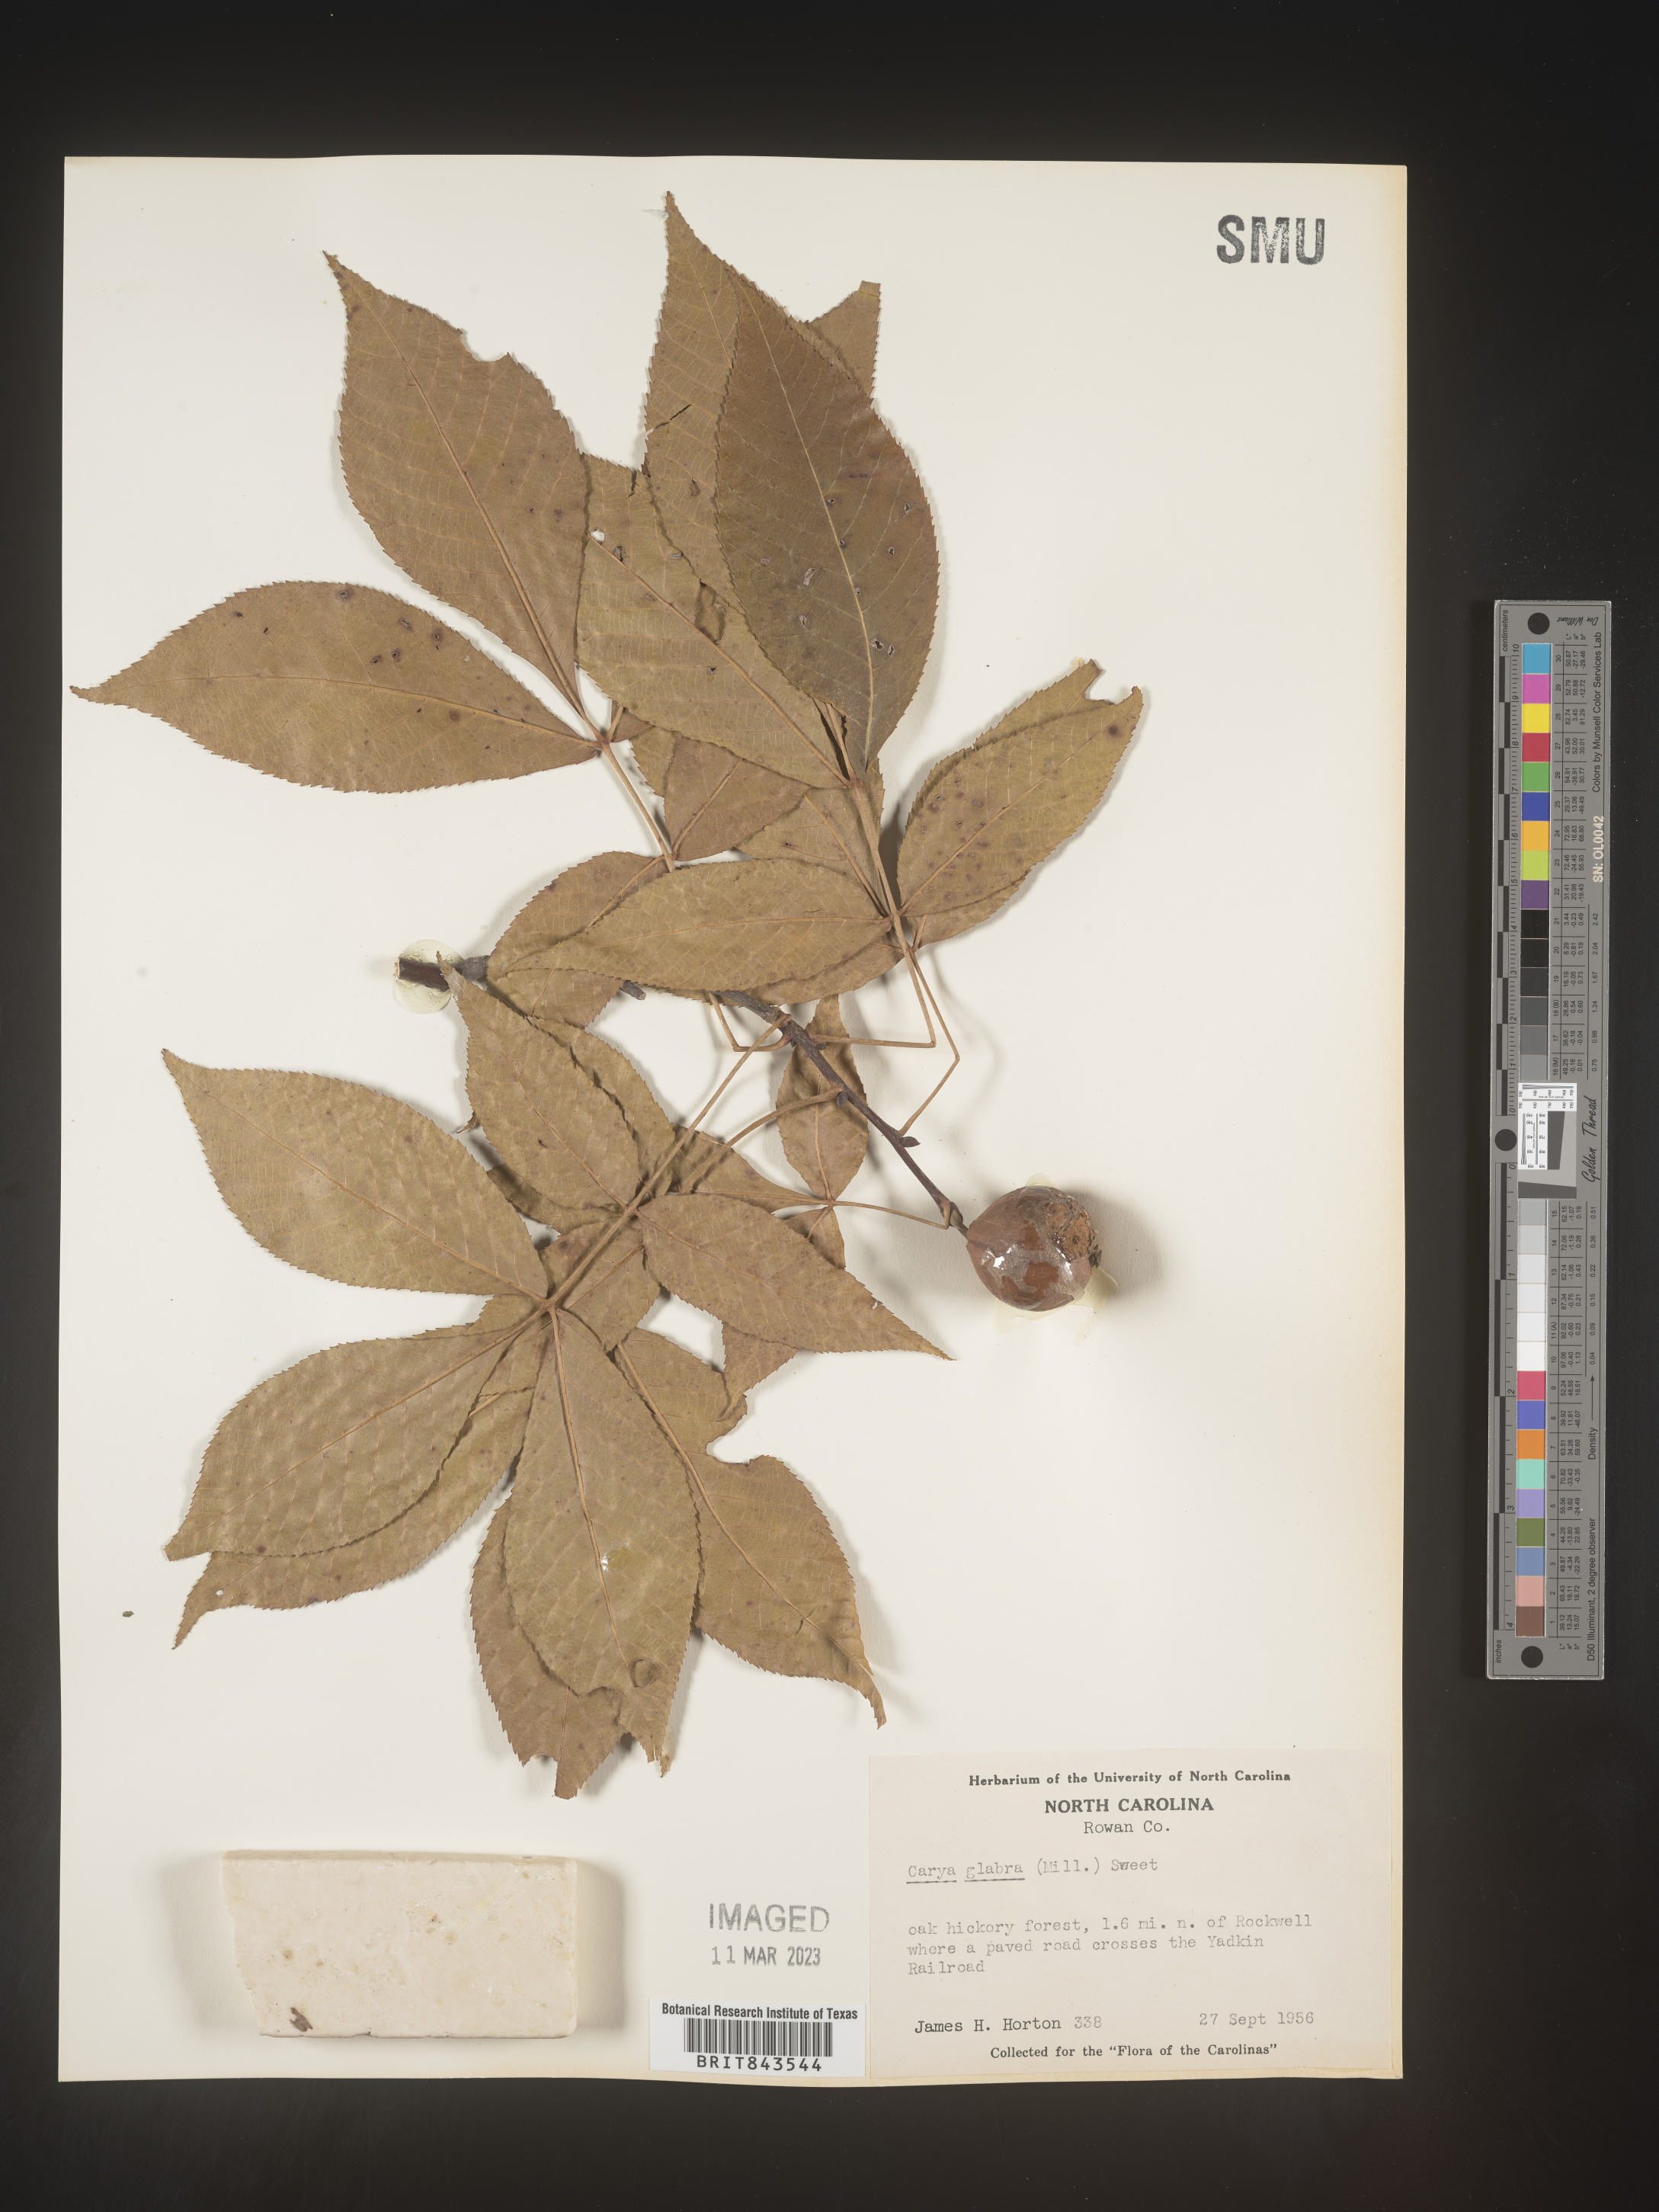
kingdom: Plantae
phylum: Tracheophyta
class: Magnoliopsida
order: Fagales
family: Juglandaceae
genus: Carya
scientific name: Carya glabra
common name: Pignut hickory
